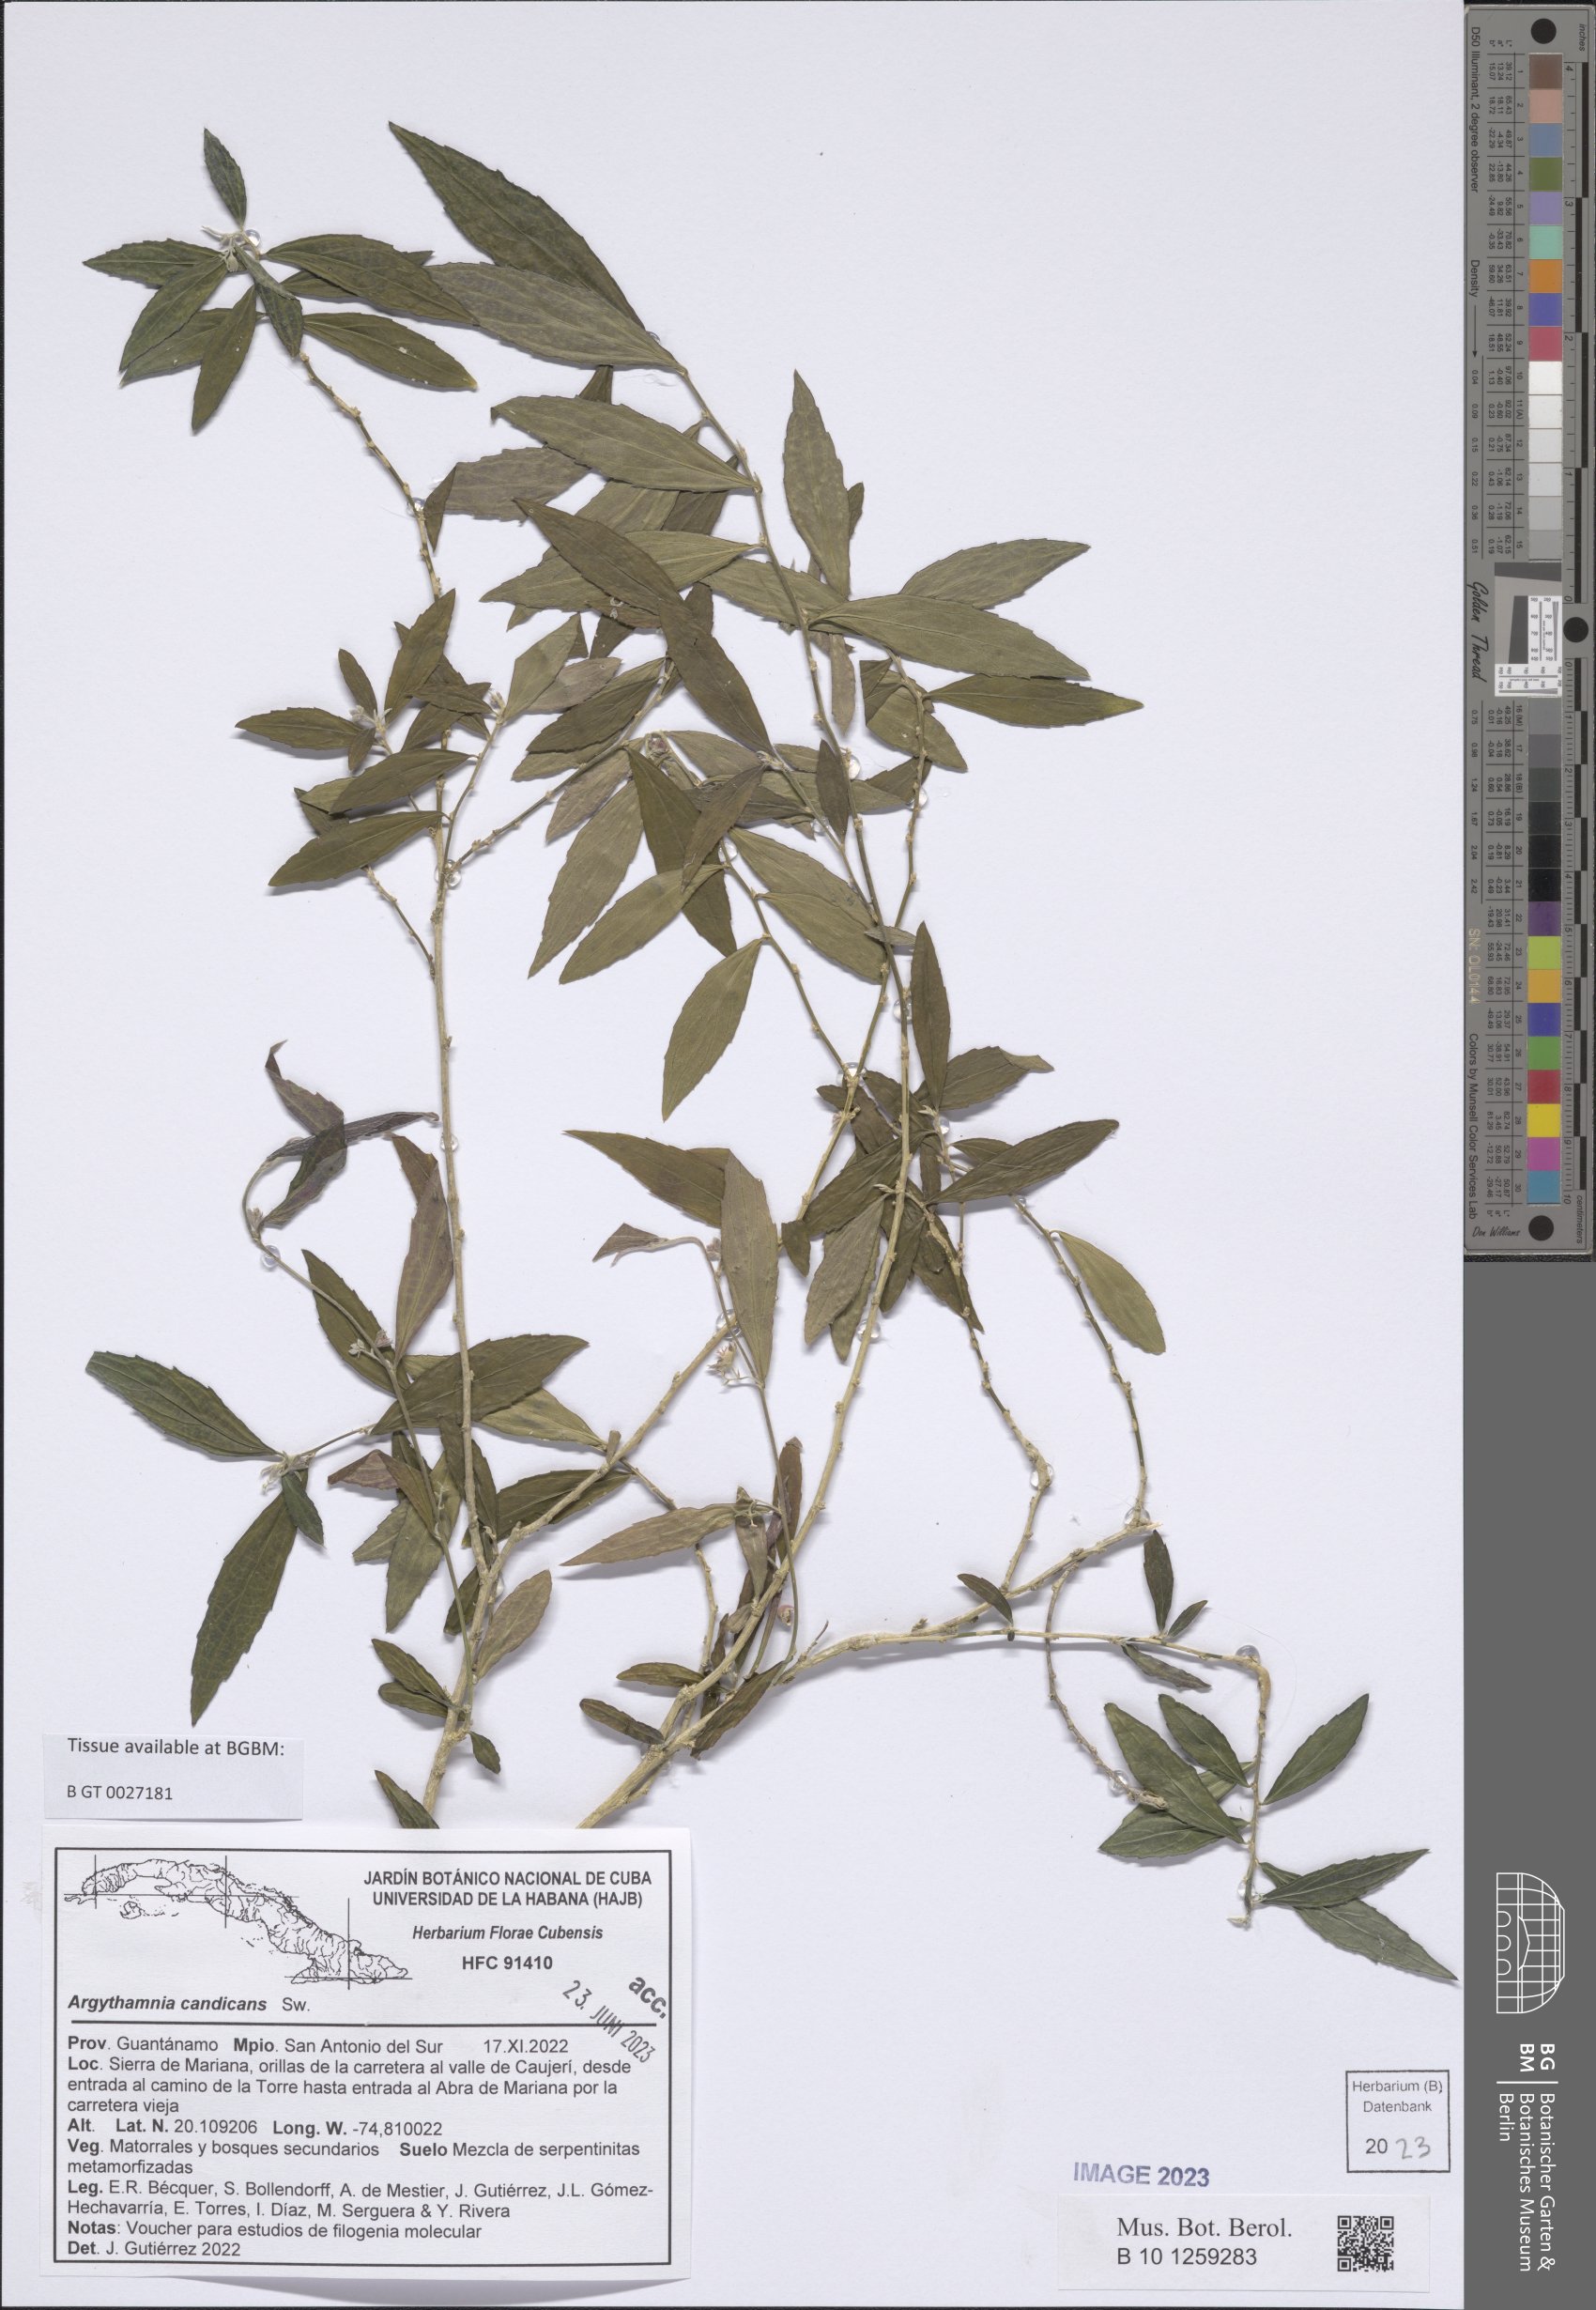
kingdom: Plantae
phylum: Tracheophyta
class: Magnoliopsida
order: Malpighiales
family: Euphorbiaceae
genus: Argythamnia
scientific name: Argythamnia candicans
